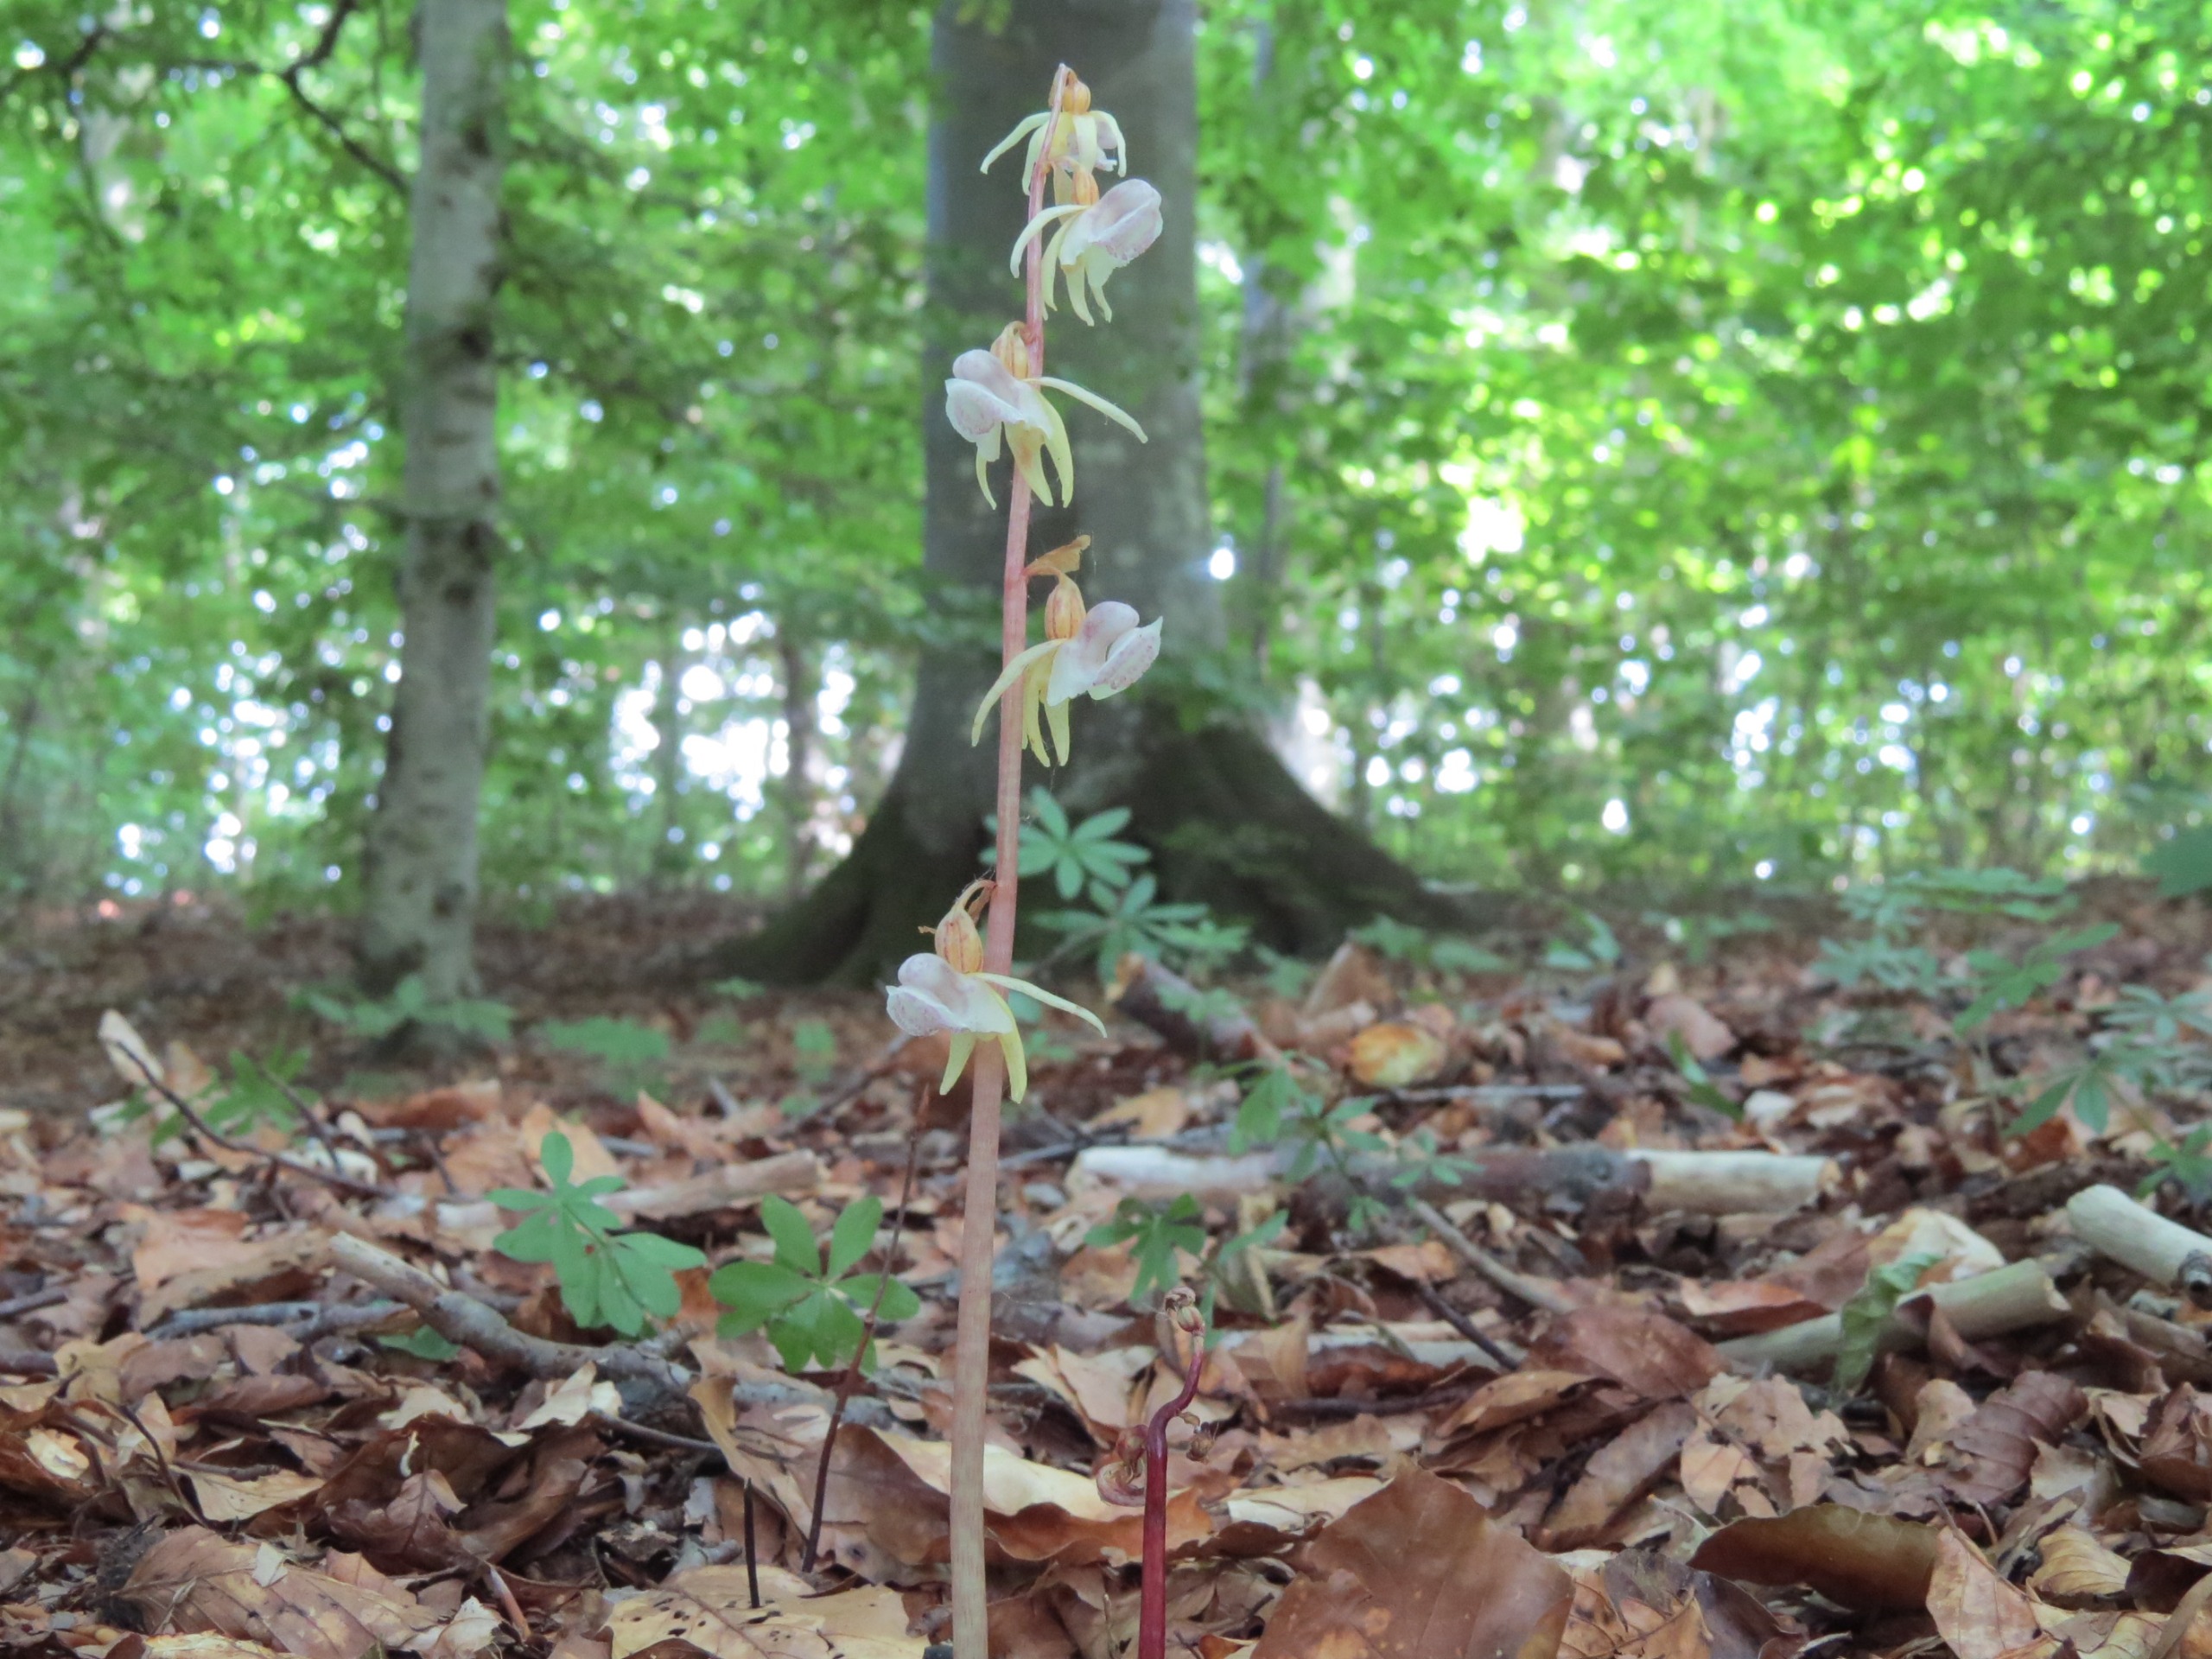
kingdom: Plantae
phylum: Tracheophyta
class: Liliopsida
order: Asparagales
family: Orchidaceae
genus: Epipogium
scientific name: Epipogium aphyllum
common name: Knælæbe
